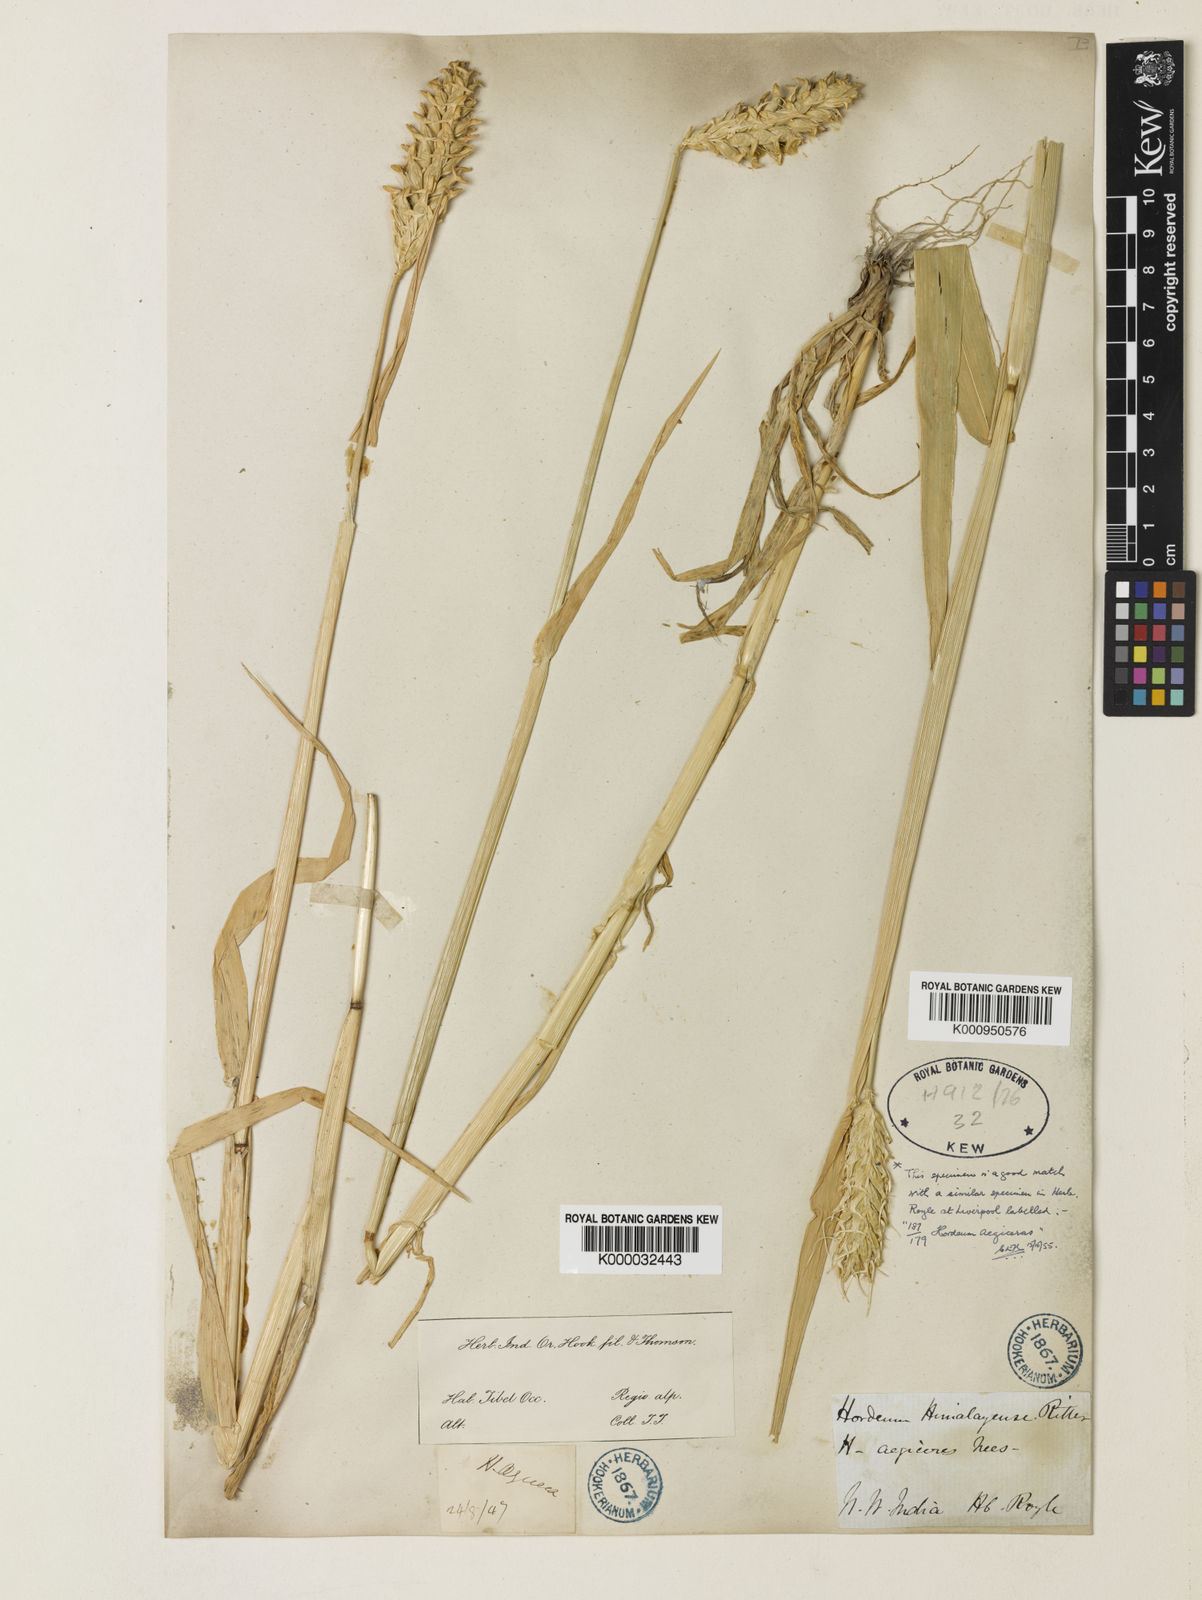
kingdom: Plantae
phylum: Tracheophyta
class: Liliopsida
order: Poales
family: Poaceae
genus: Hordeum
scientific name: Hordeum vulgare
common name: Common barley
